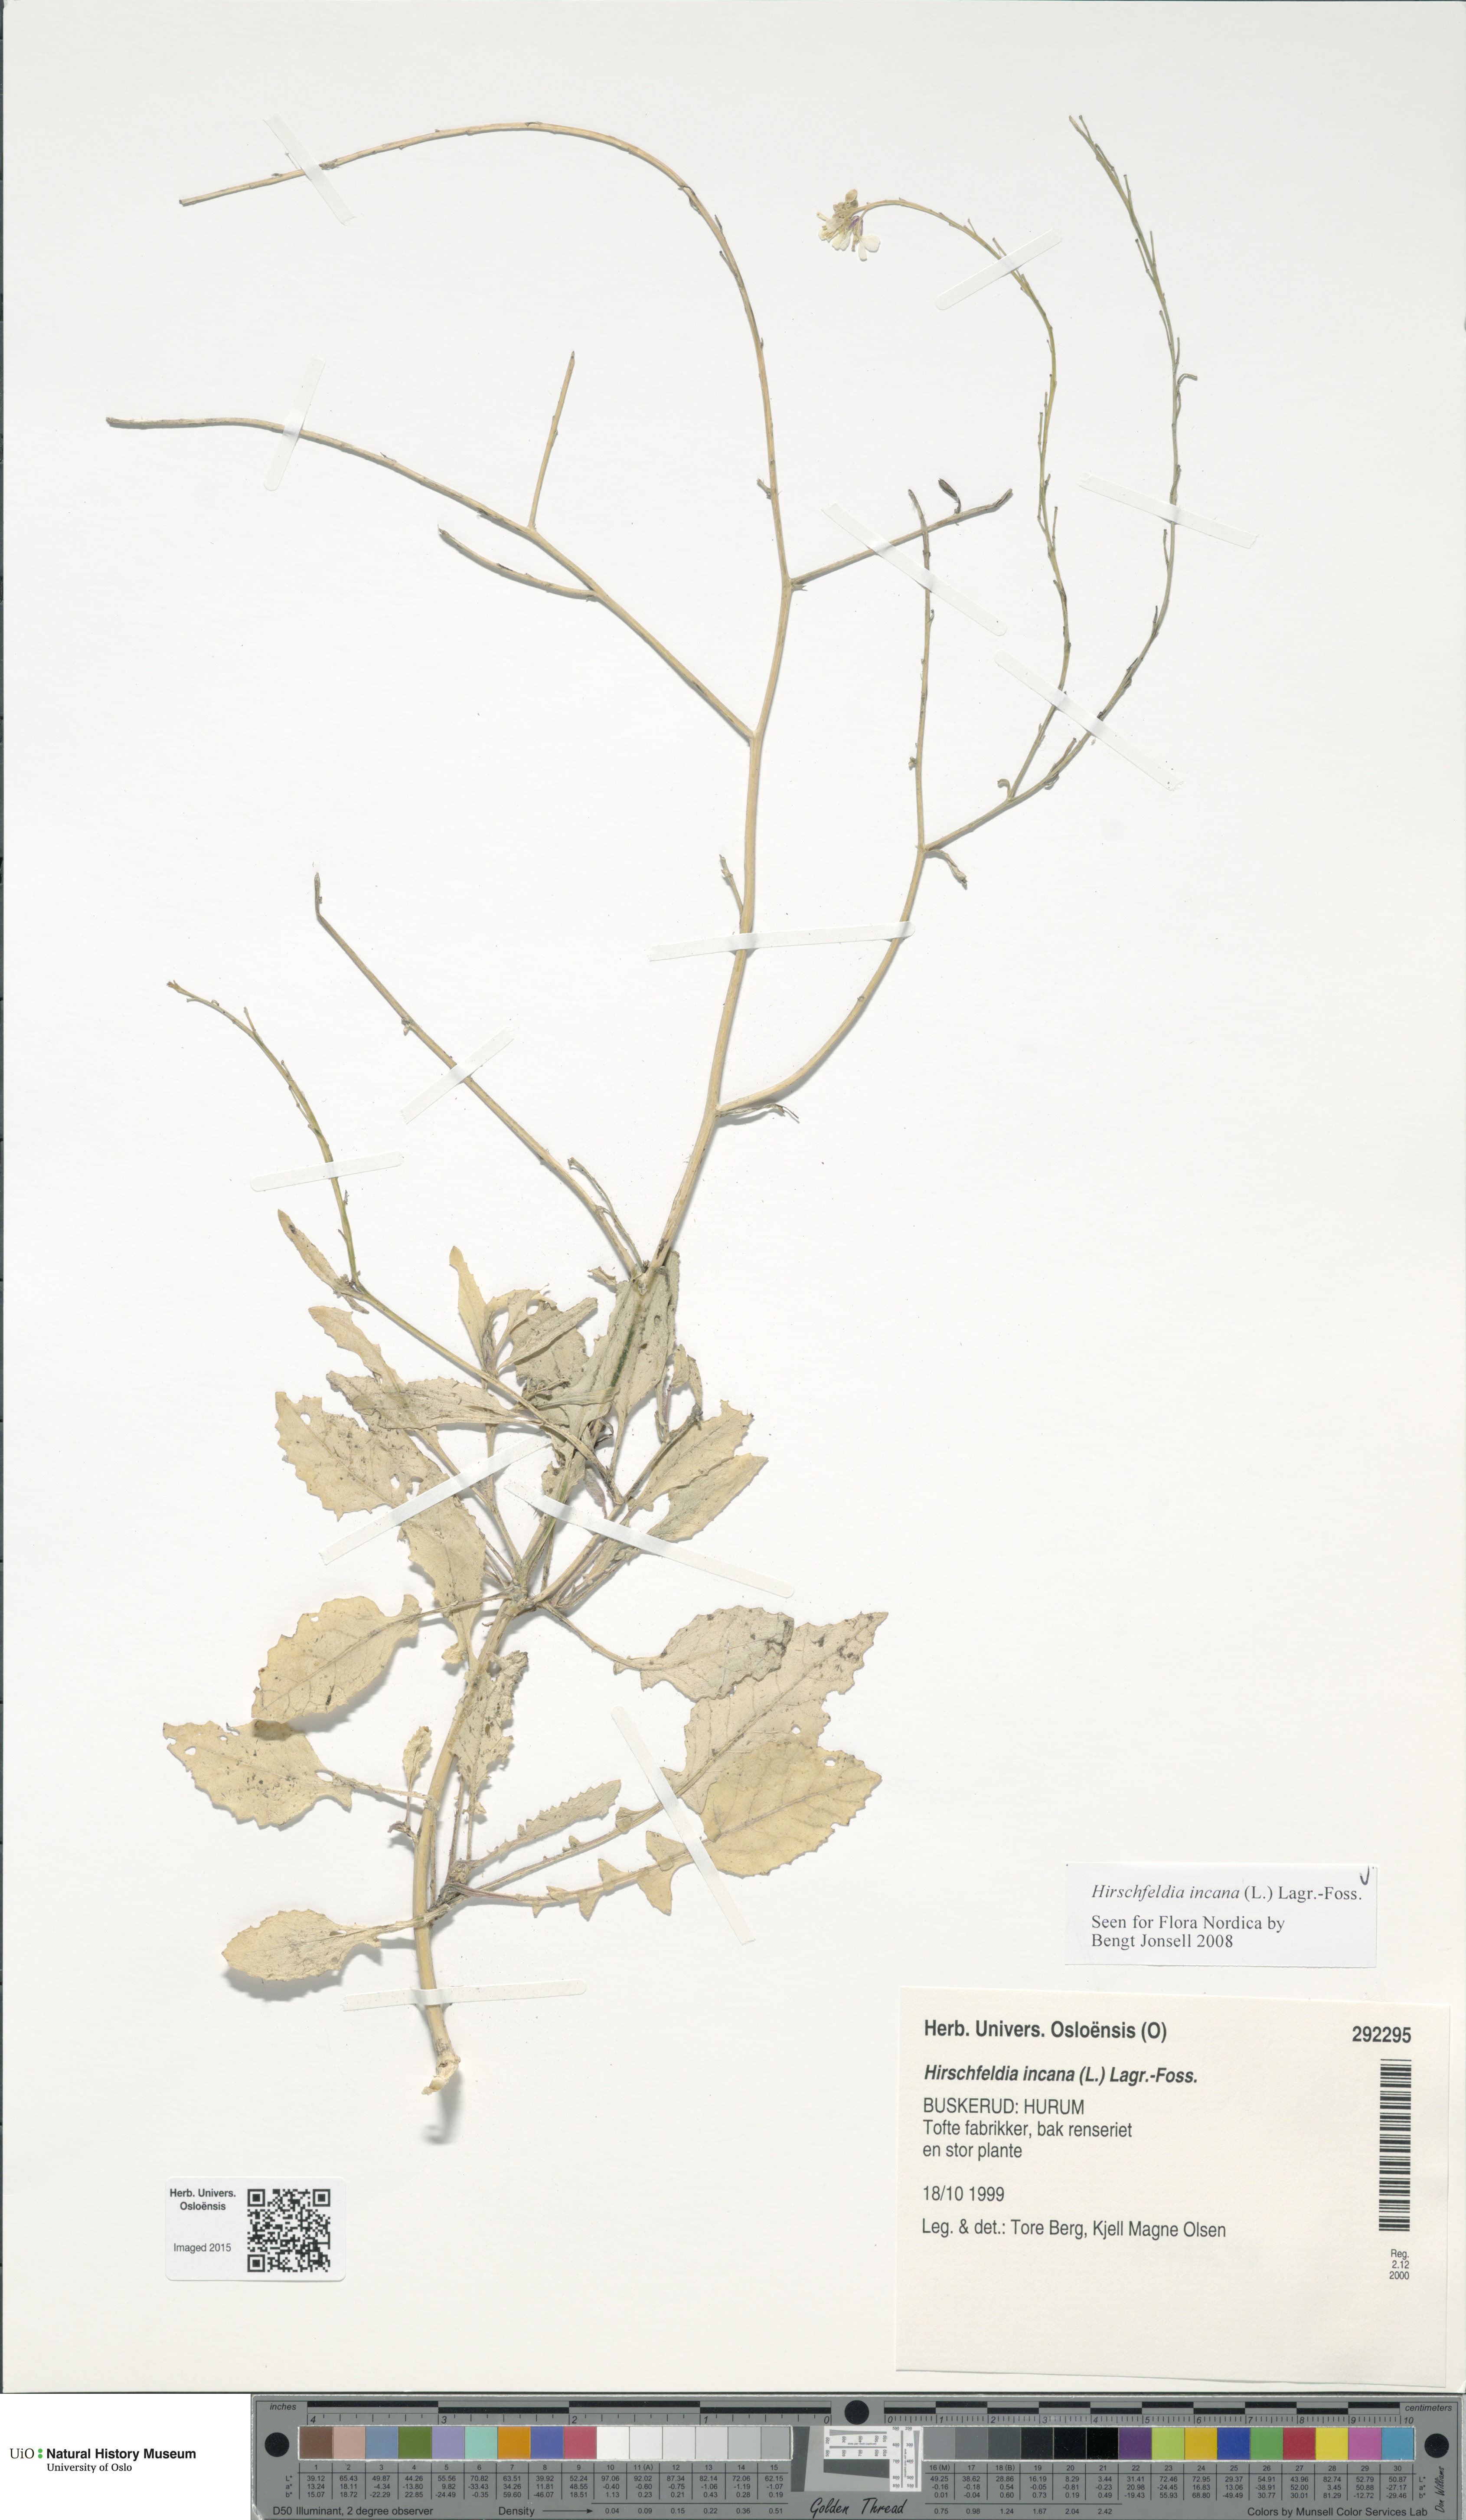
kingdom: Plantae
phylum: Tracheophyta
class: Magnoliopsida
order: Brassicales
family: Brassicaceae
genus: Hirschfeldia
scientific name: Hirschfeldia incana
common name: Hoary mustard
